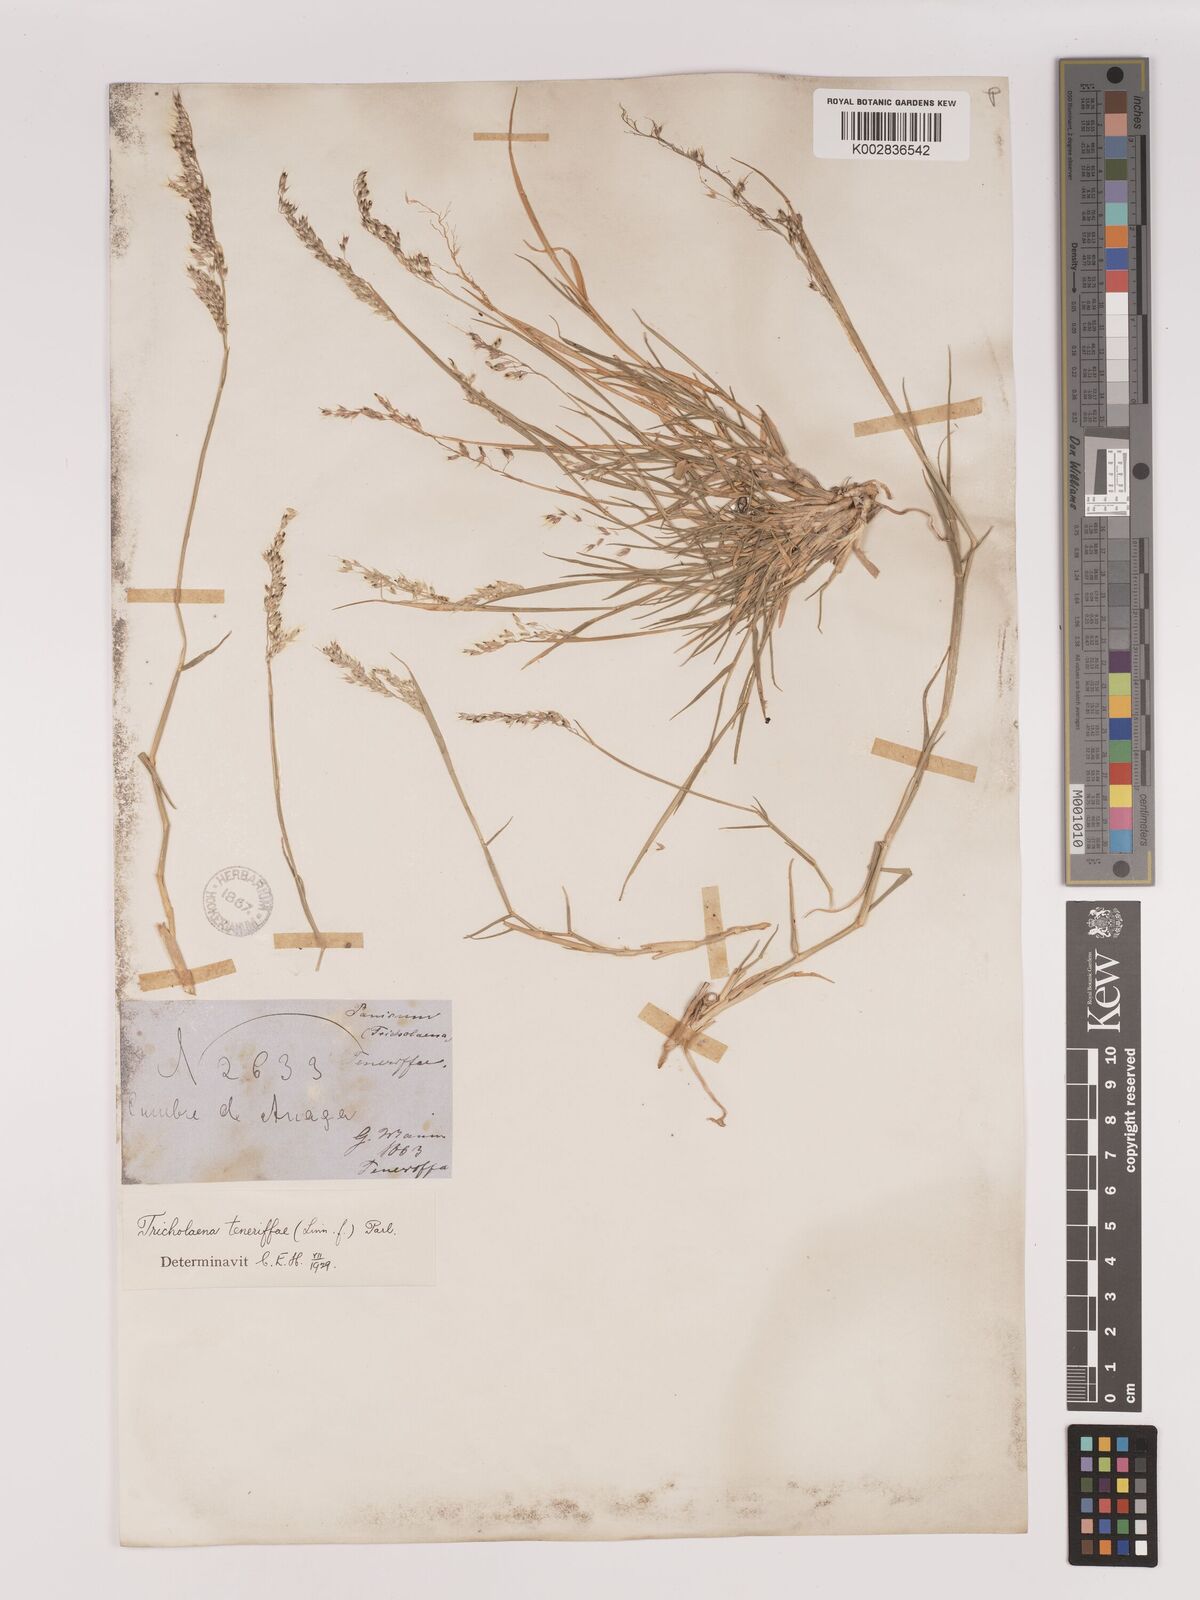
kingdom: Plantae
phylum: Tracheophyta
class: Liliopsida
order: Poales
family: Poaceae
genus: Tricholaena
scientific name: Tricholaena teneriffae
